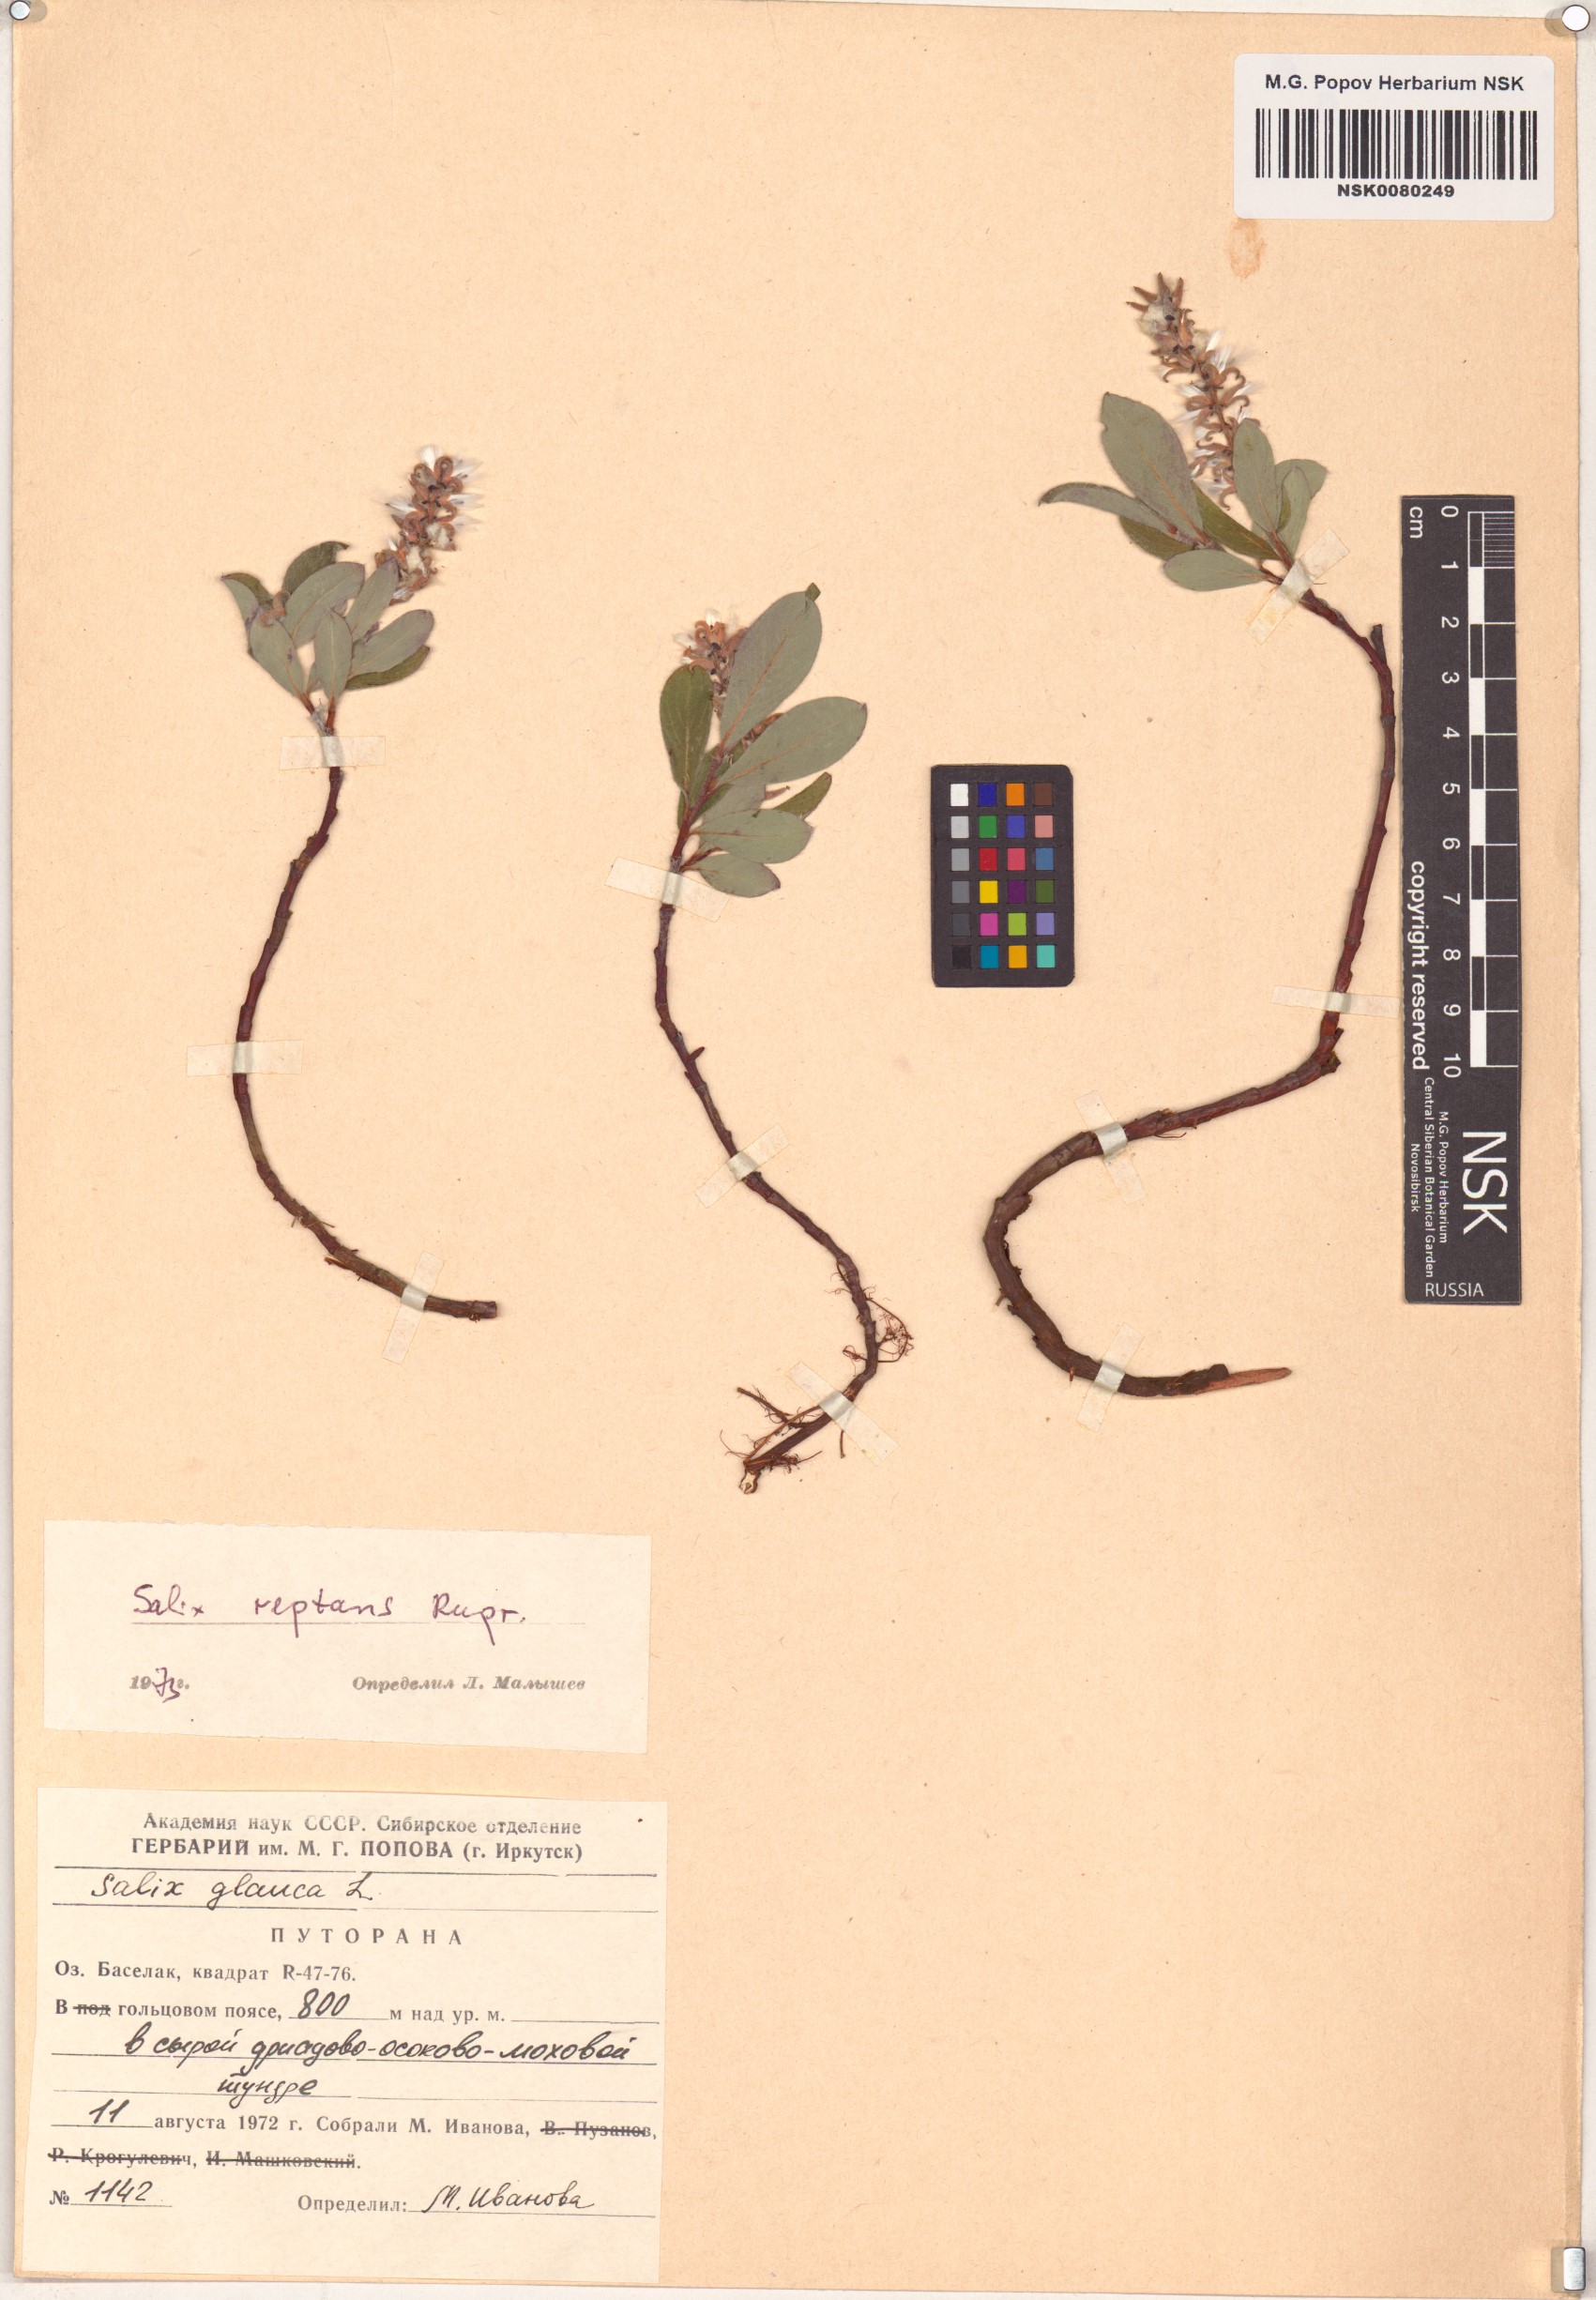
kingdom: Plantae
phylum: Tracheophyta
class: Magnoliopsida
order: Malpighiales
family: Salicaceae
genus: Salix
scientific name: Salix reptans
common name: Arctic creeping willow
